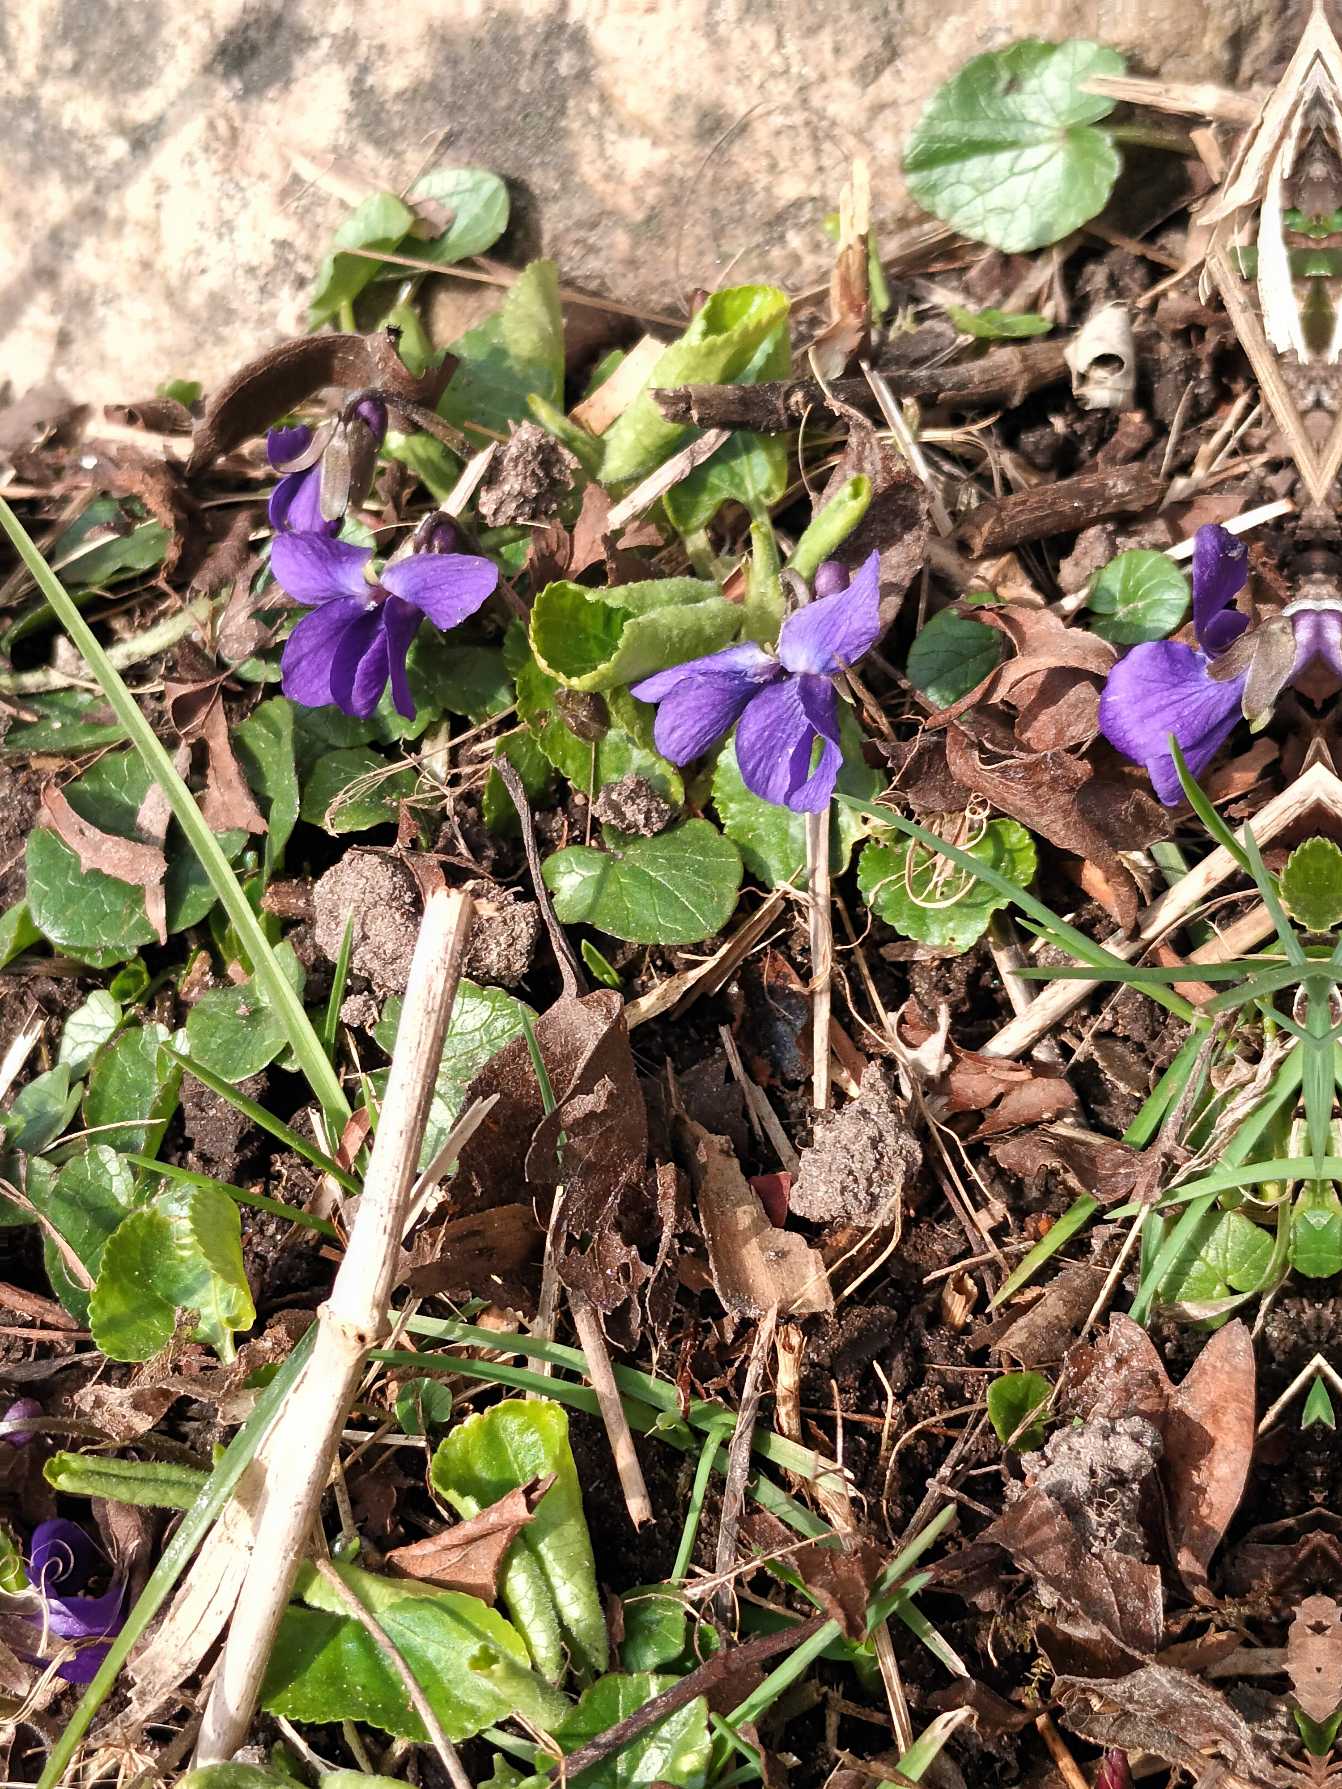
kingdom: Plantae
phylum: Tracheophyta
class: Magnoliopsida
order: Malpighiales
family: Violaceae
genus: Viola
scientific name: Viola odorata
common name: Marts-viol
